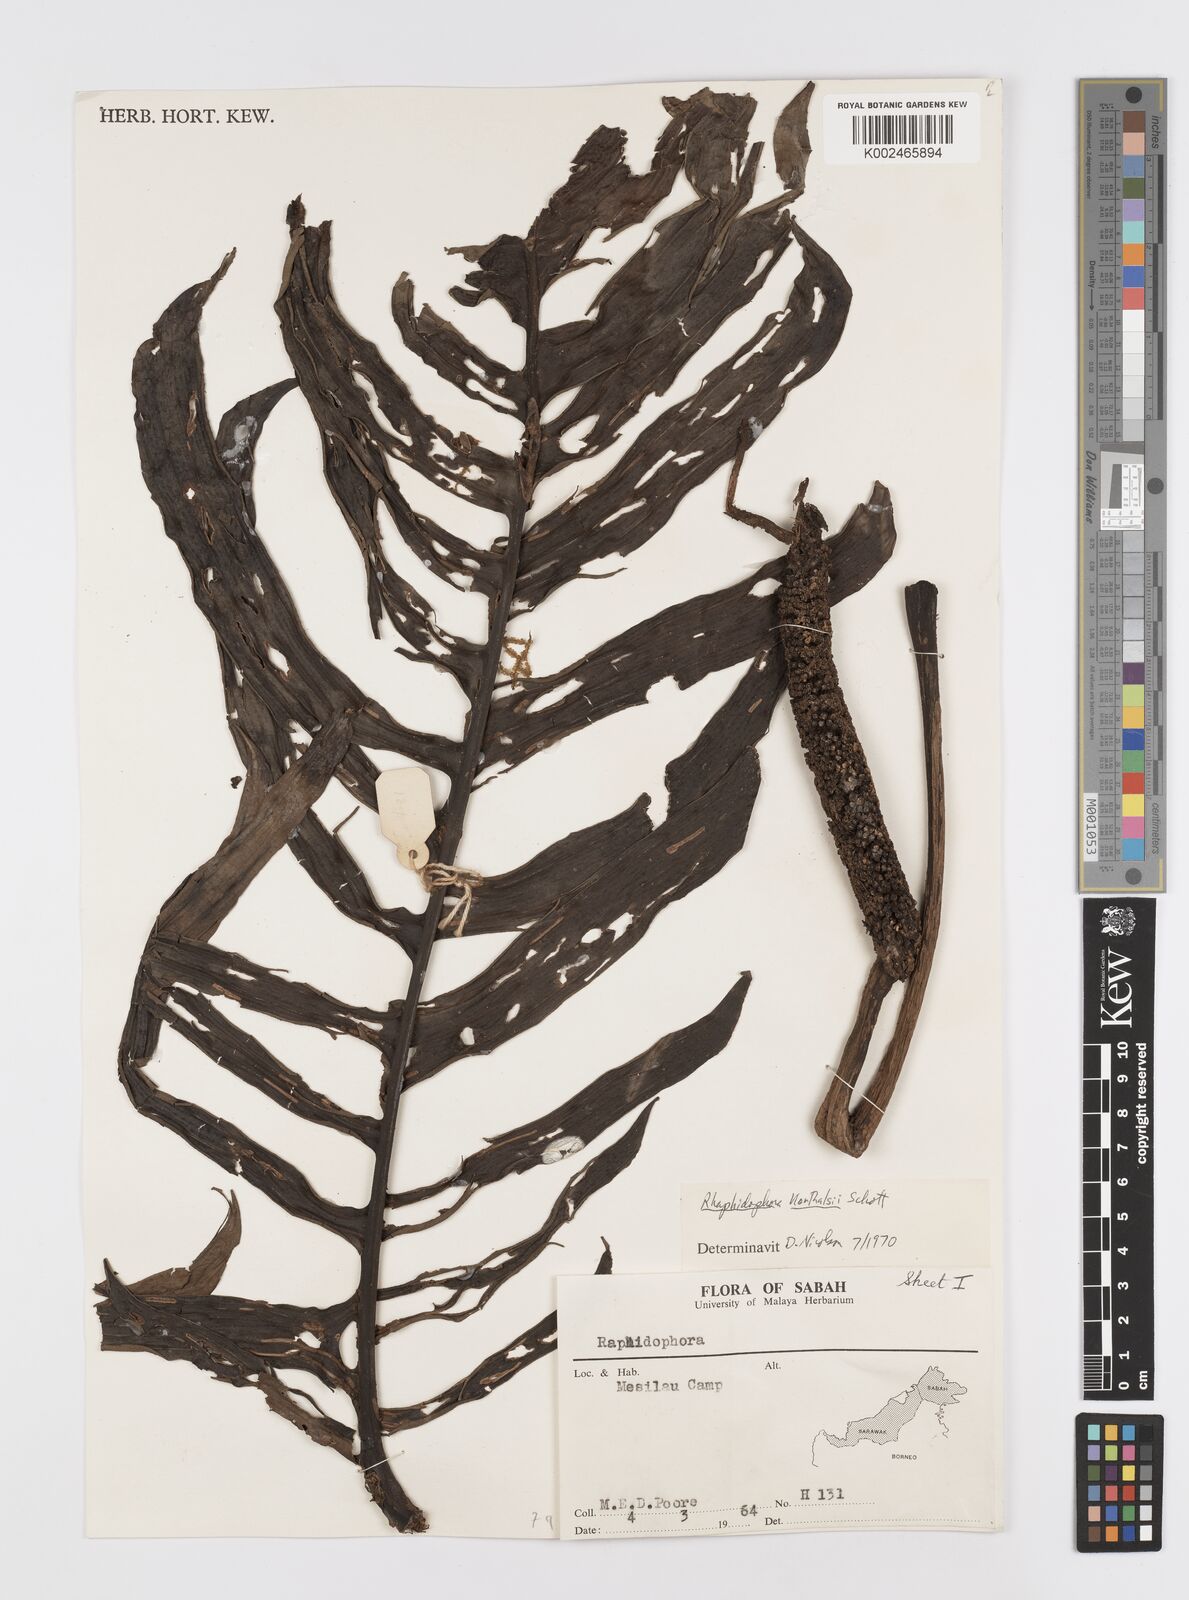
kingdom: Plantae
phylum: Tracheophyta
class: Liliopsida
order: Alismatales
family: Araceae
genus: Rhaphidophora
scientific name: Rhaphidophora korthalsii
